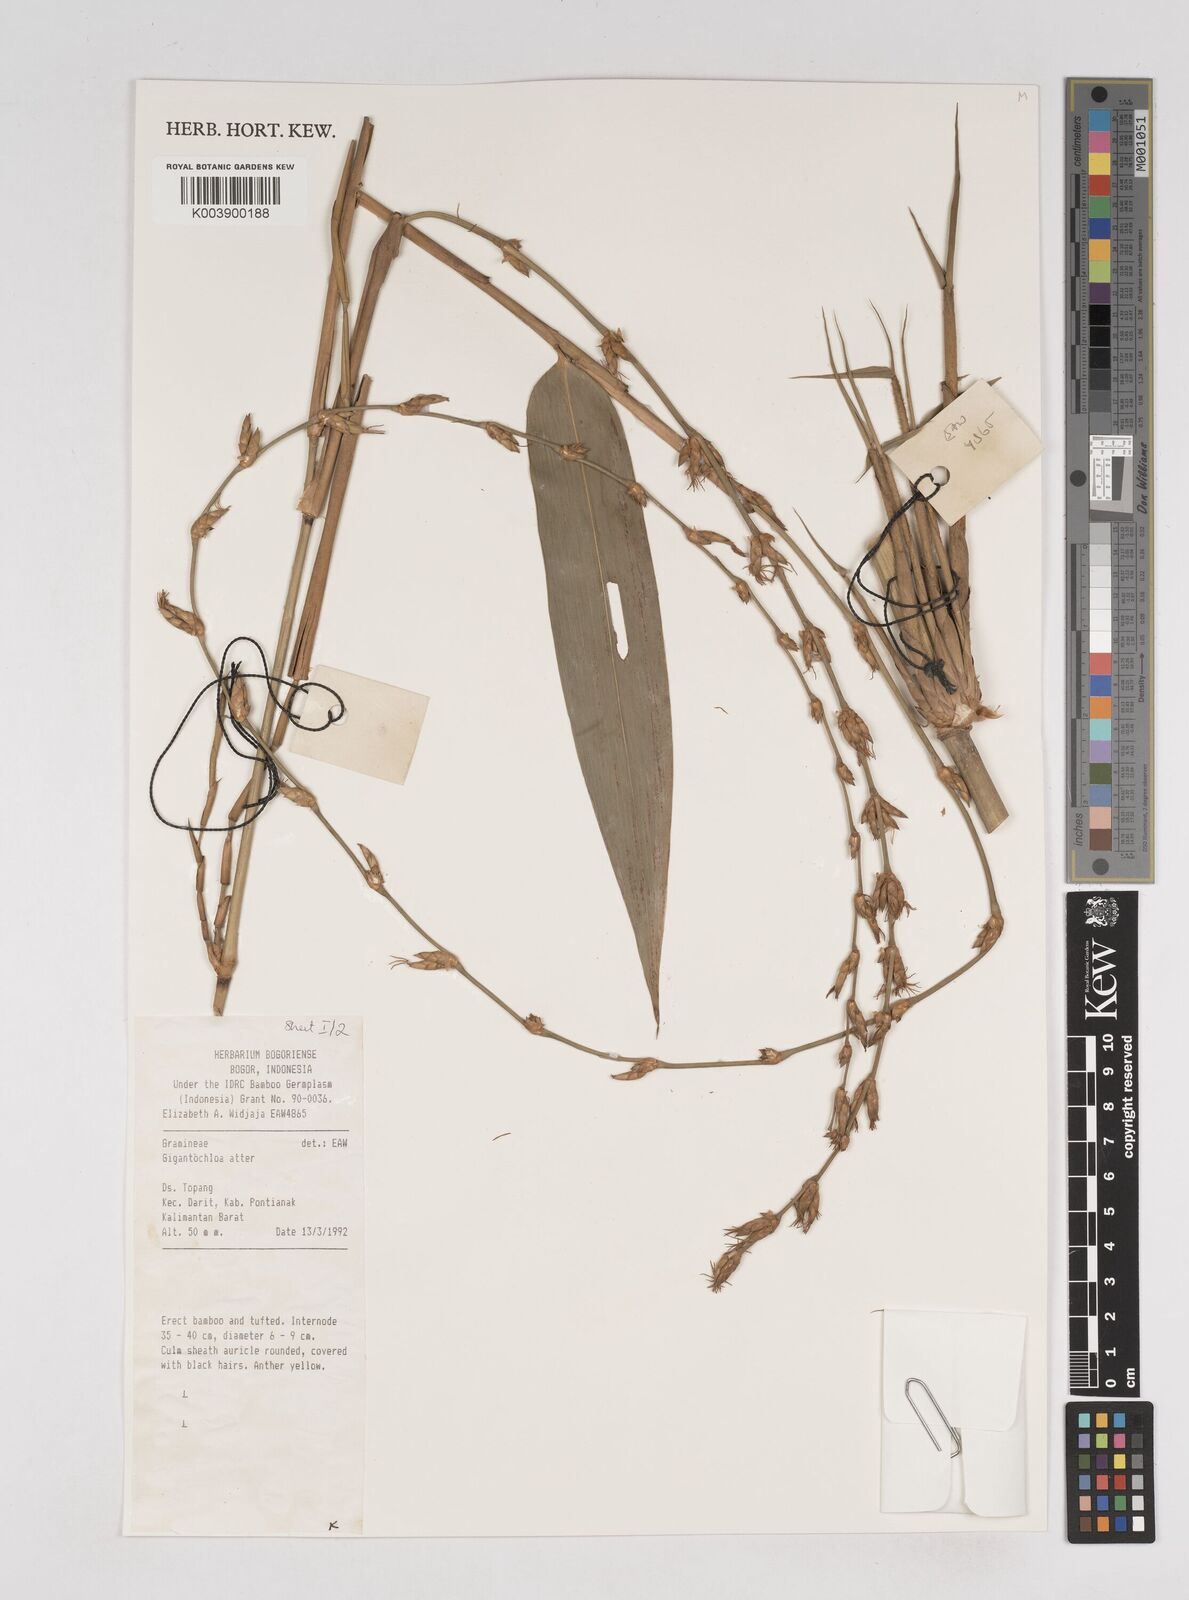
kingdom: Plantae
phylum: Tracheophyta
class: Liliopsida
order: Poales
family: Poaceae
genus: Gigantochloa
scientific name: Gigantochloa atter
